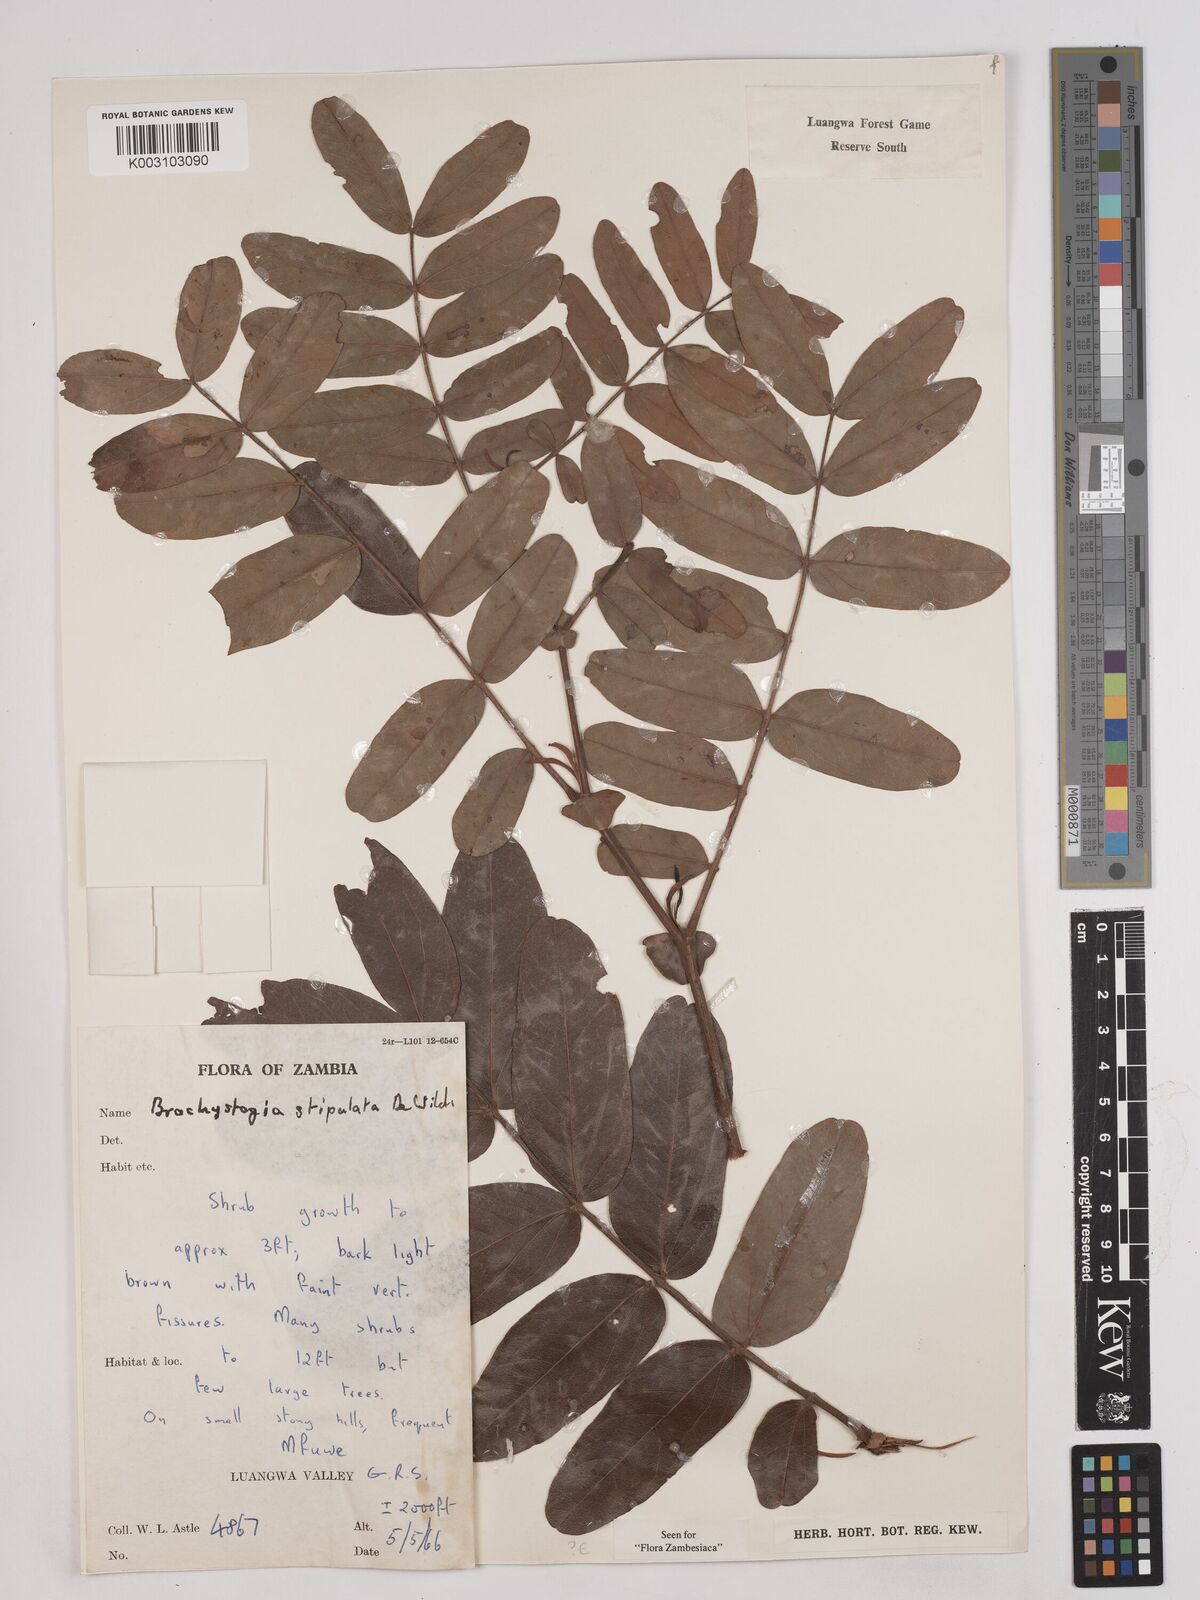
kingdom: Plantae
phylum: Tracheophyta
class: Magnoliopsida
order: Fabales
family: Fabaceae
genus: Brachystegia
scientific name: Brachystegia stipulata
